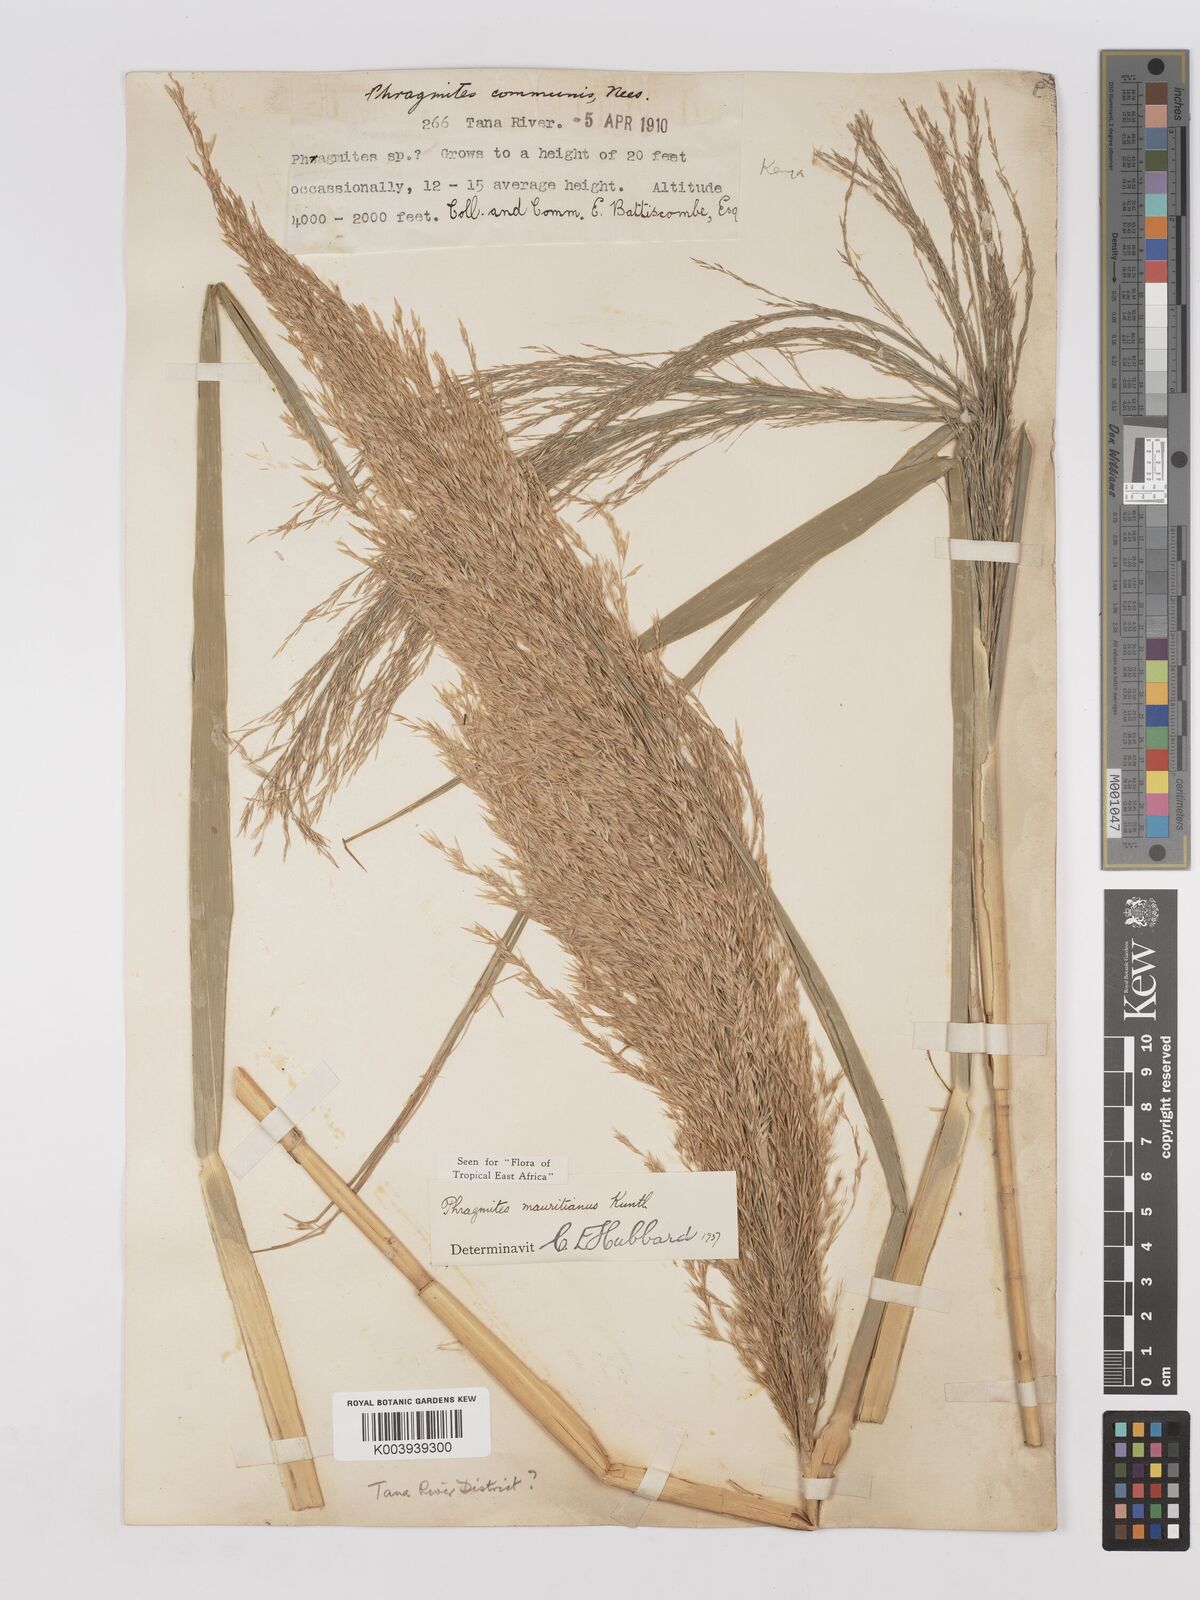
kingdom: Plantae
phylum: Tracheophyta
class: Liliopsida
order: Poales
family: Poaceae
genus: Phragmites
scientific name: Phragmites mauritianus
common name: Reed grass
